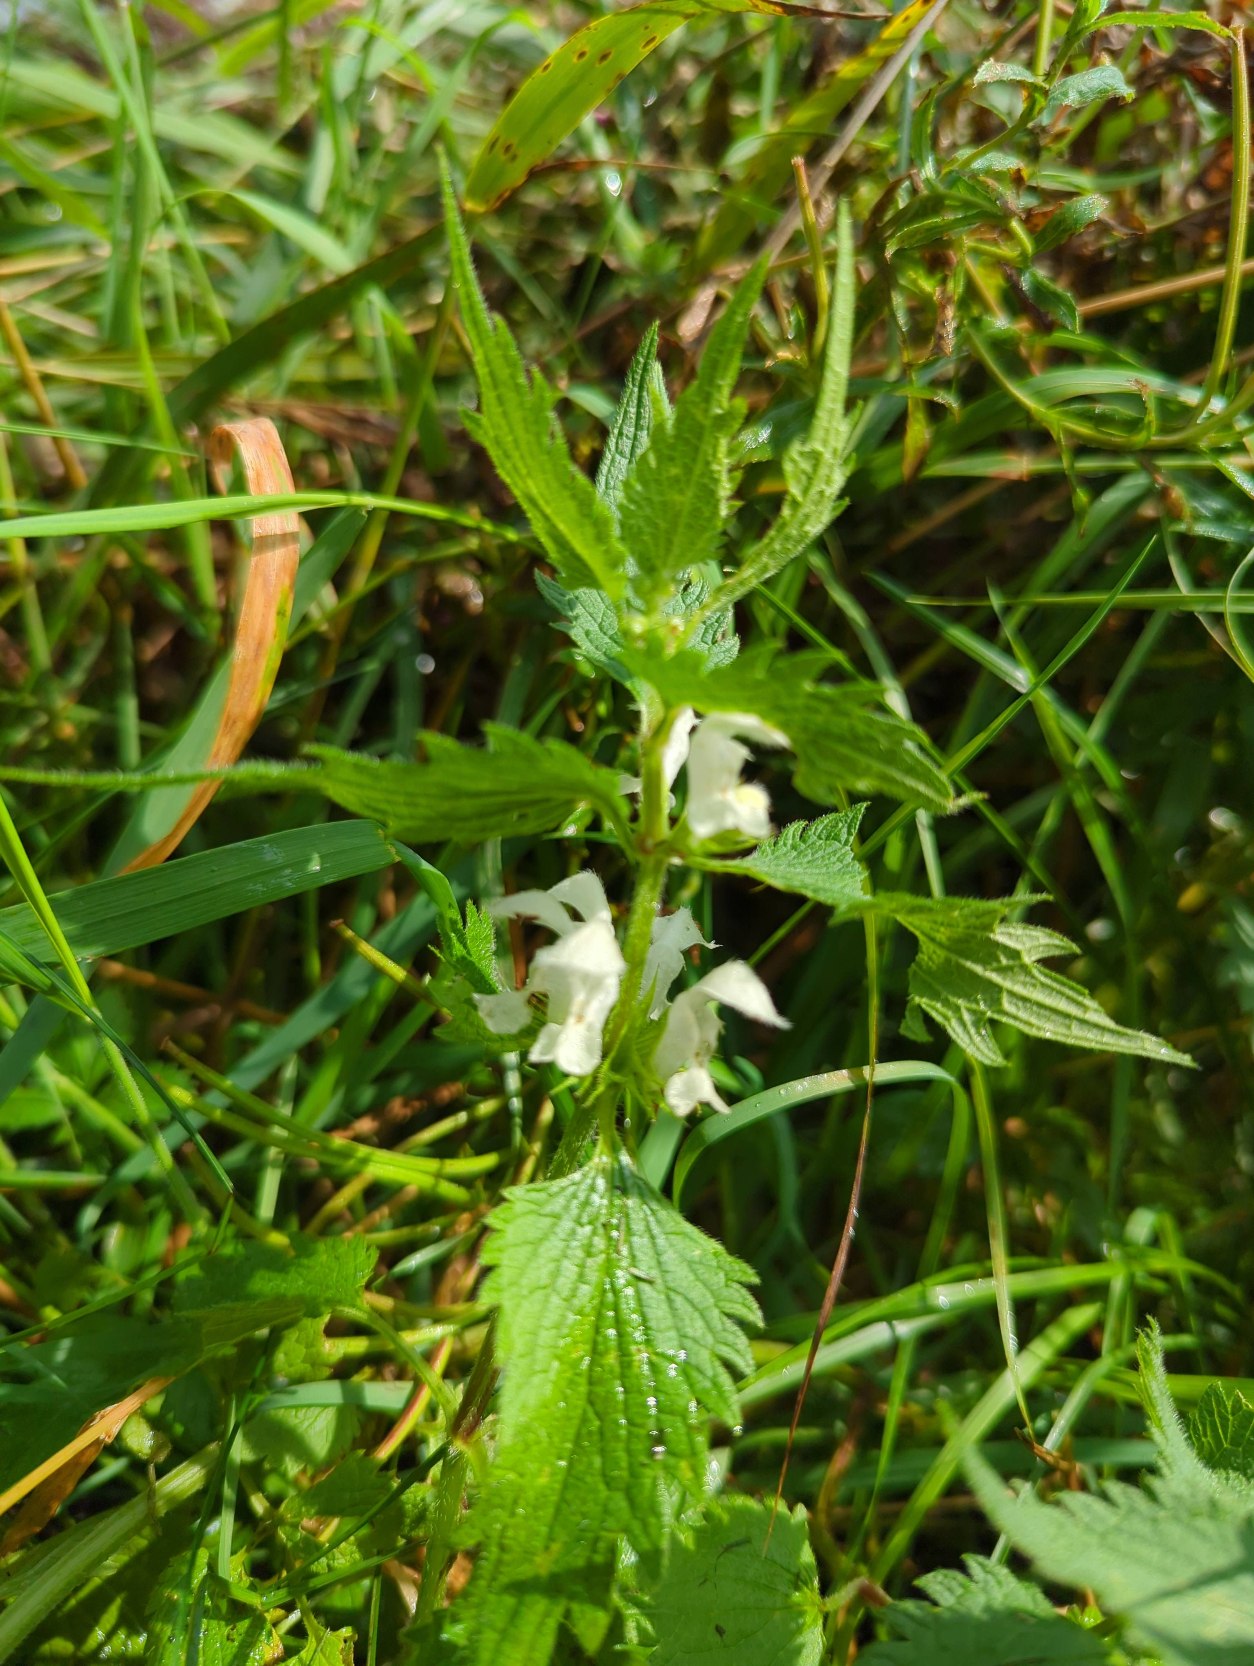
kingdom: Plantae
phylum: Tracheophyta
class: Magnoliopsida
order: Lamiales
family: Lamiaceae
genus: Lamium
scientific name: Lamium album
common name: Døvnælde
